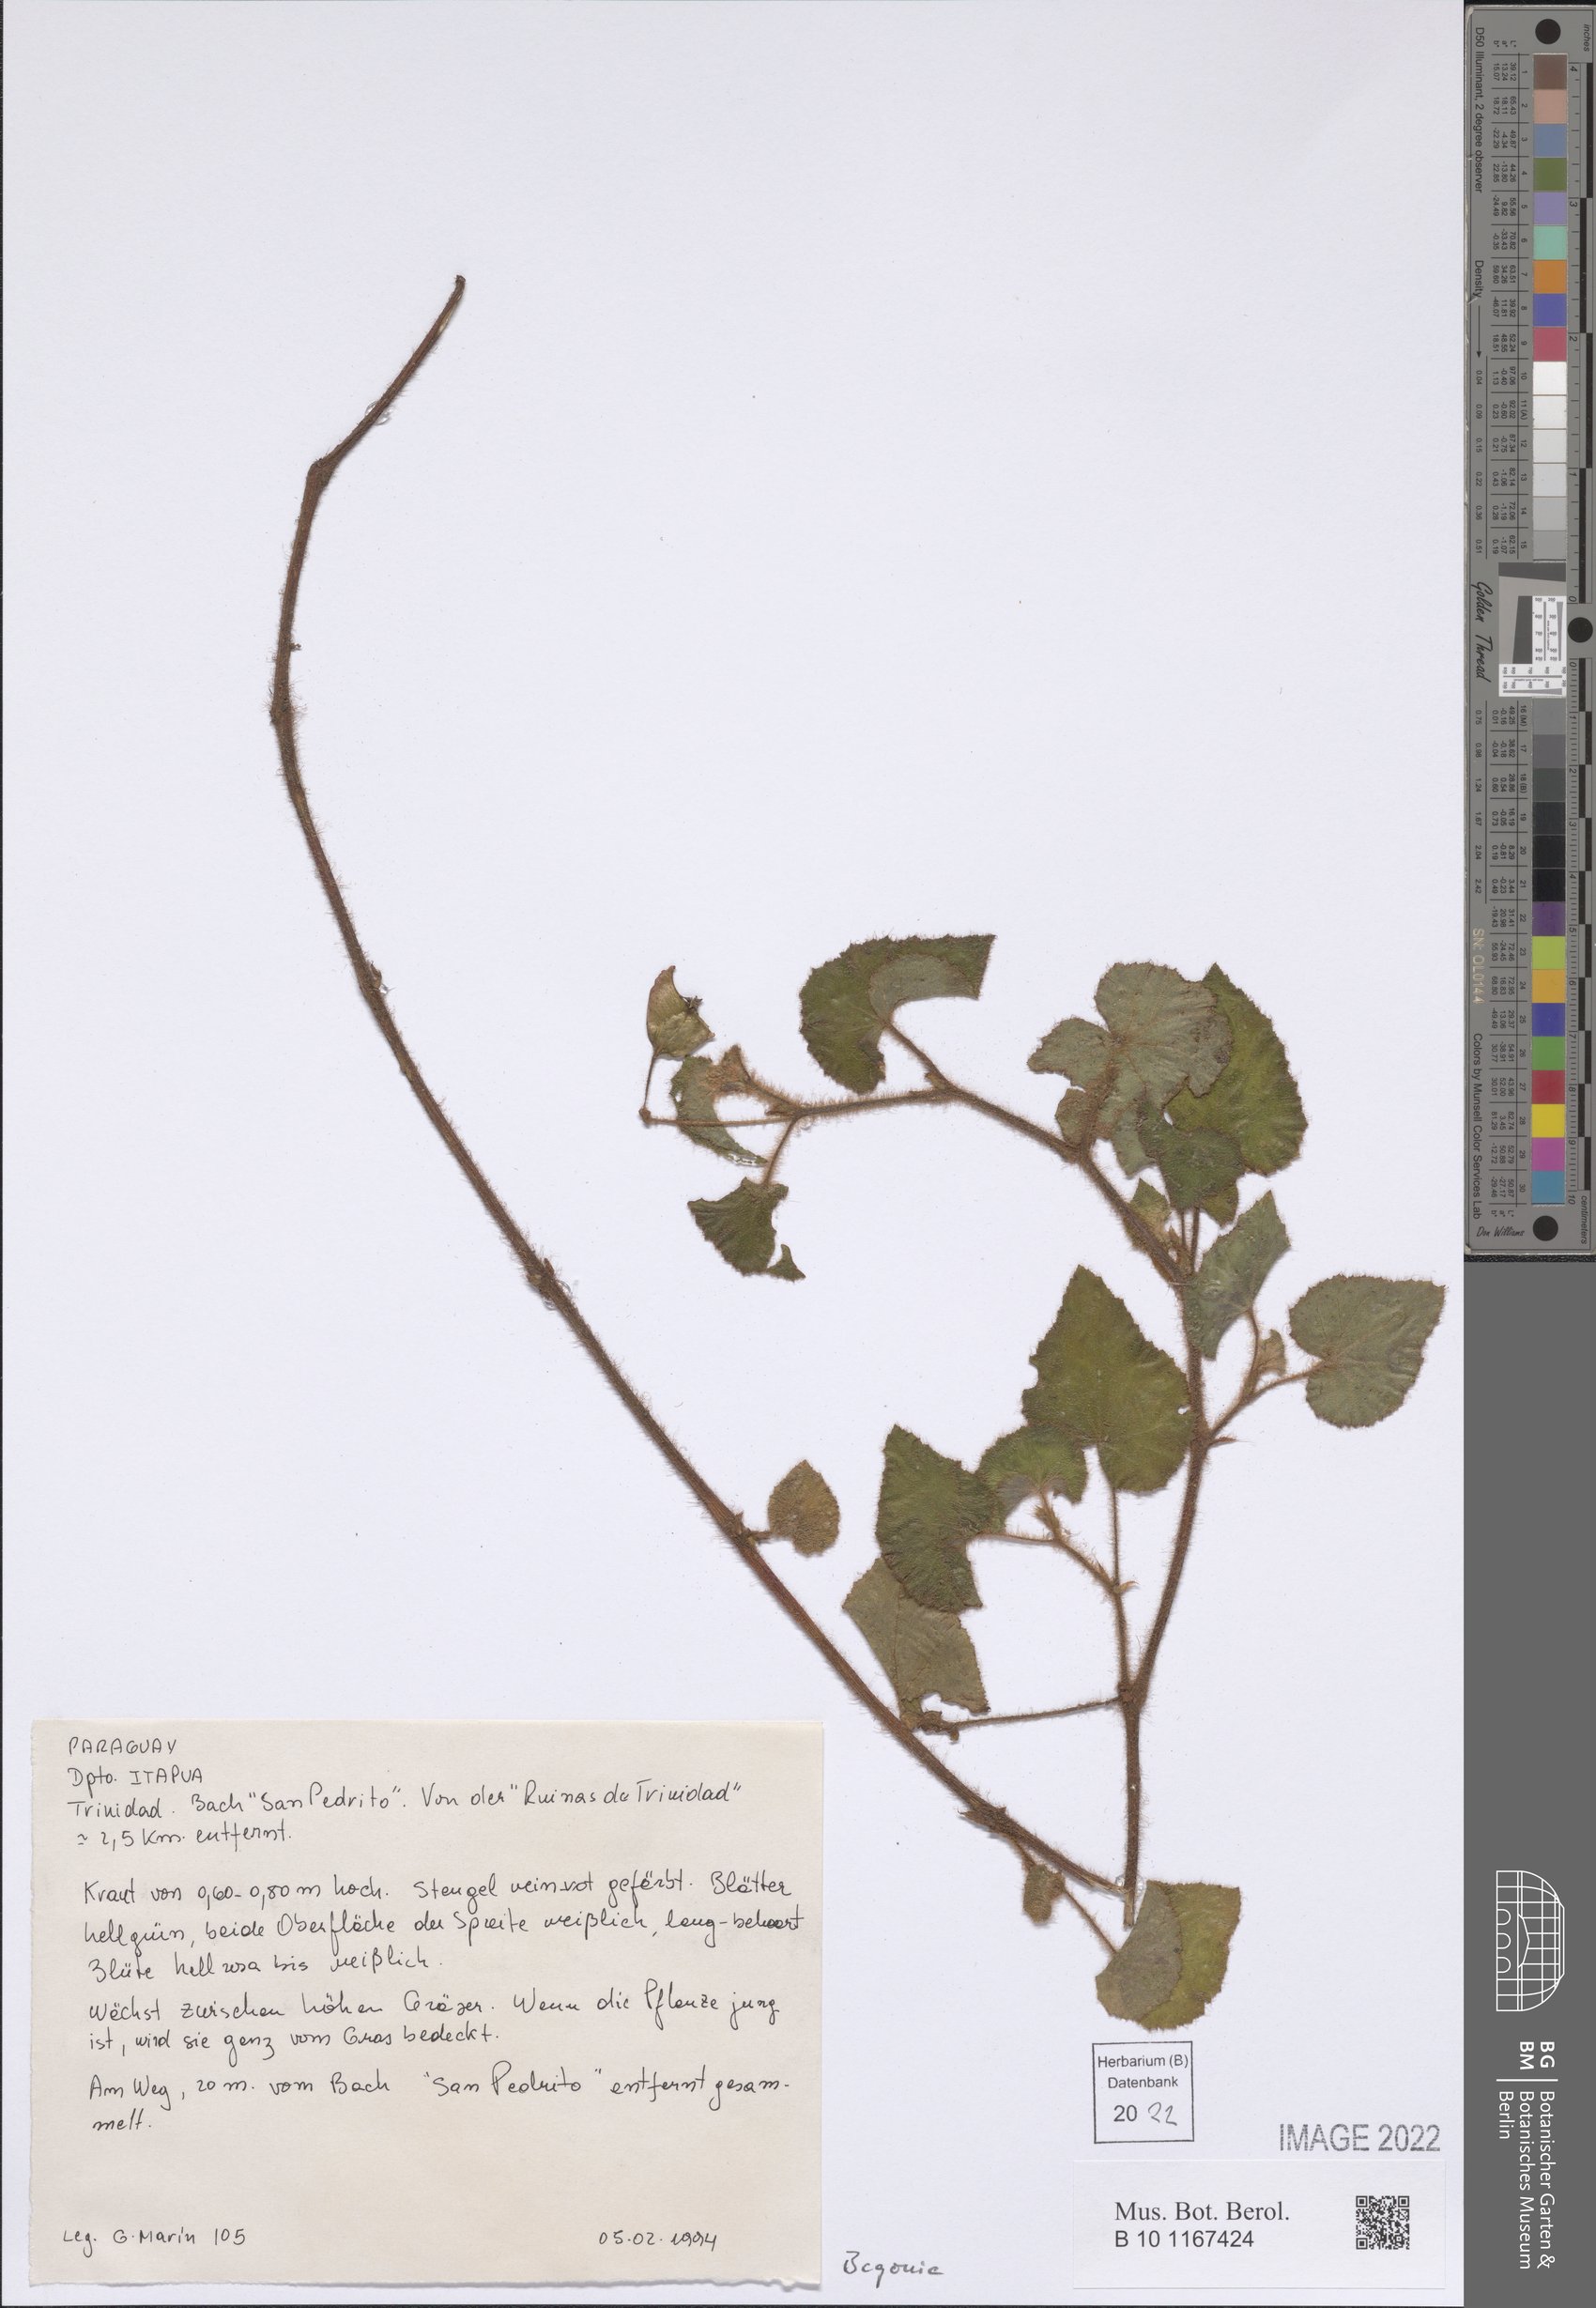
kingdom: Plantae
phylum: Tracheophyta
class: Magnoliopsida
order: Cucurbitales
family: Begoniaceae
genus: Begonia
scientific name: Begonia
